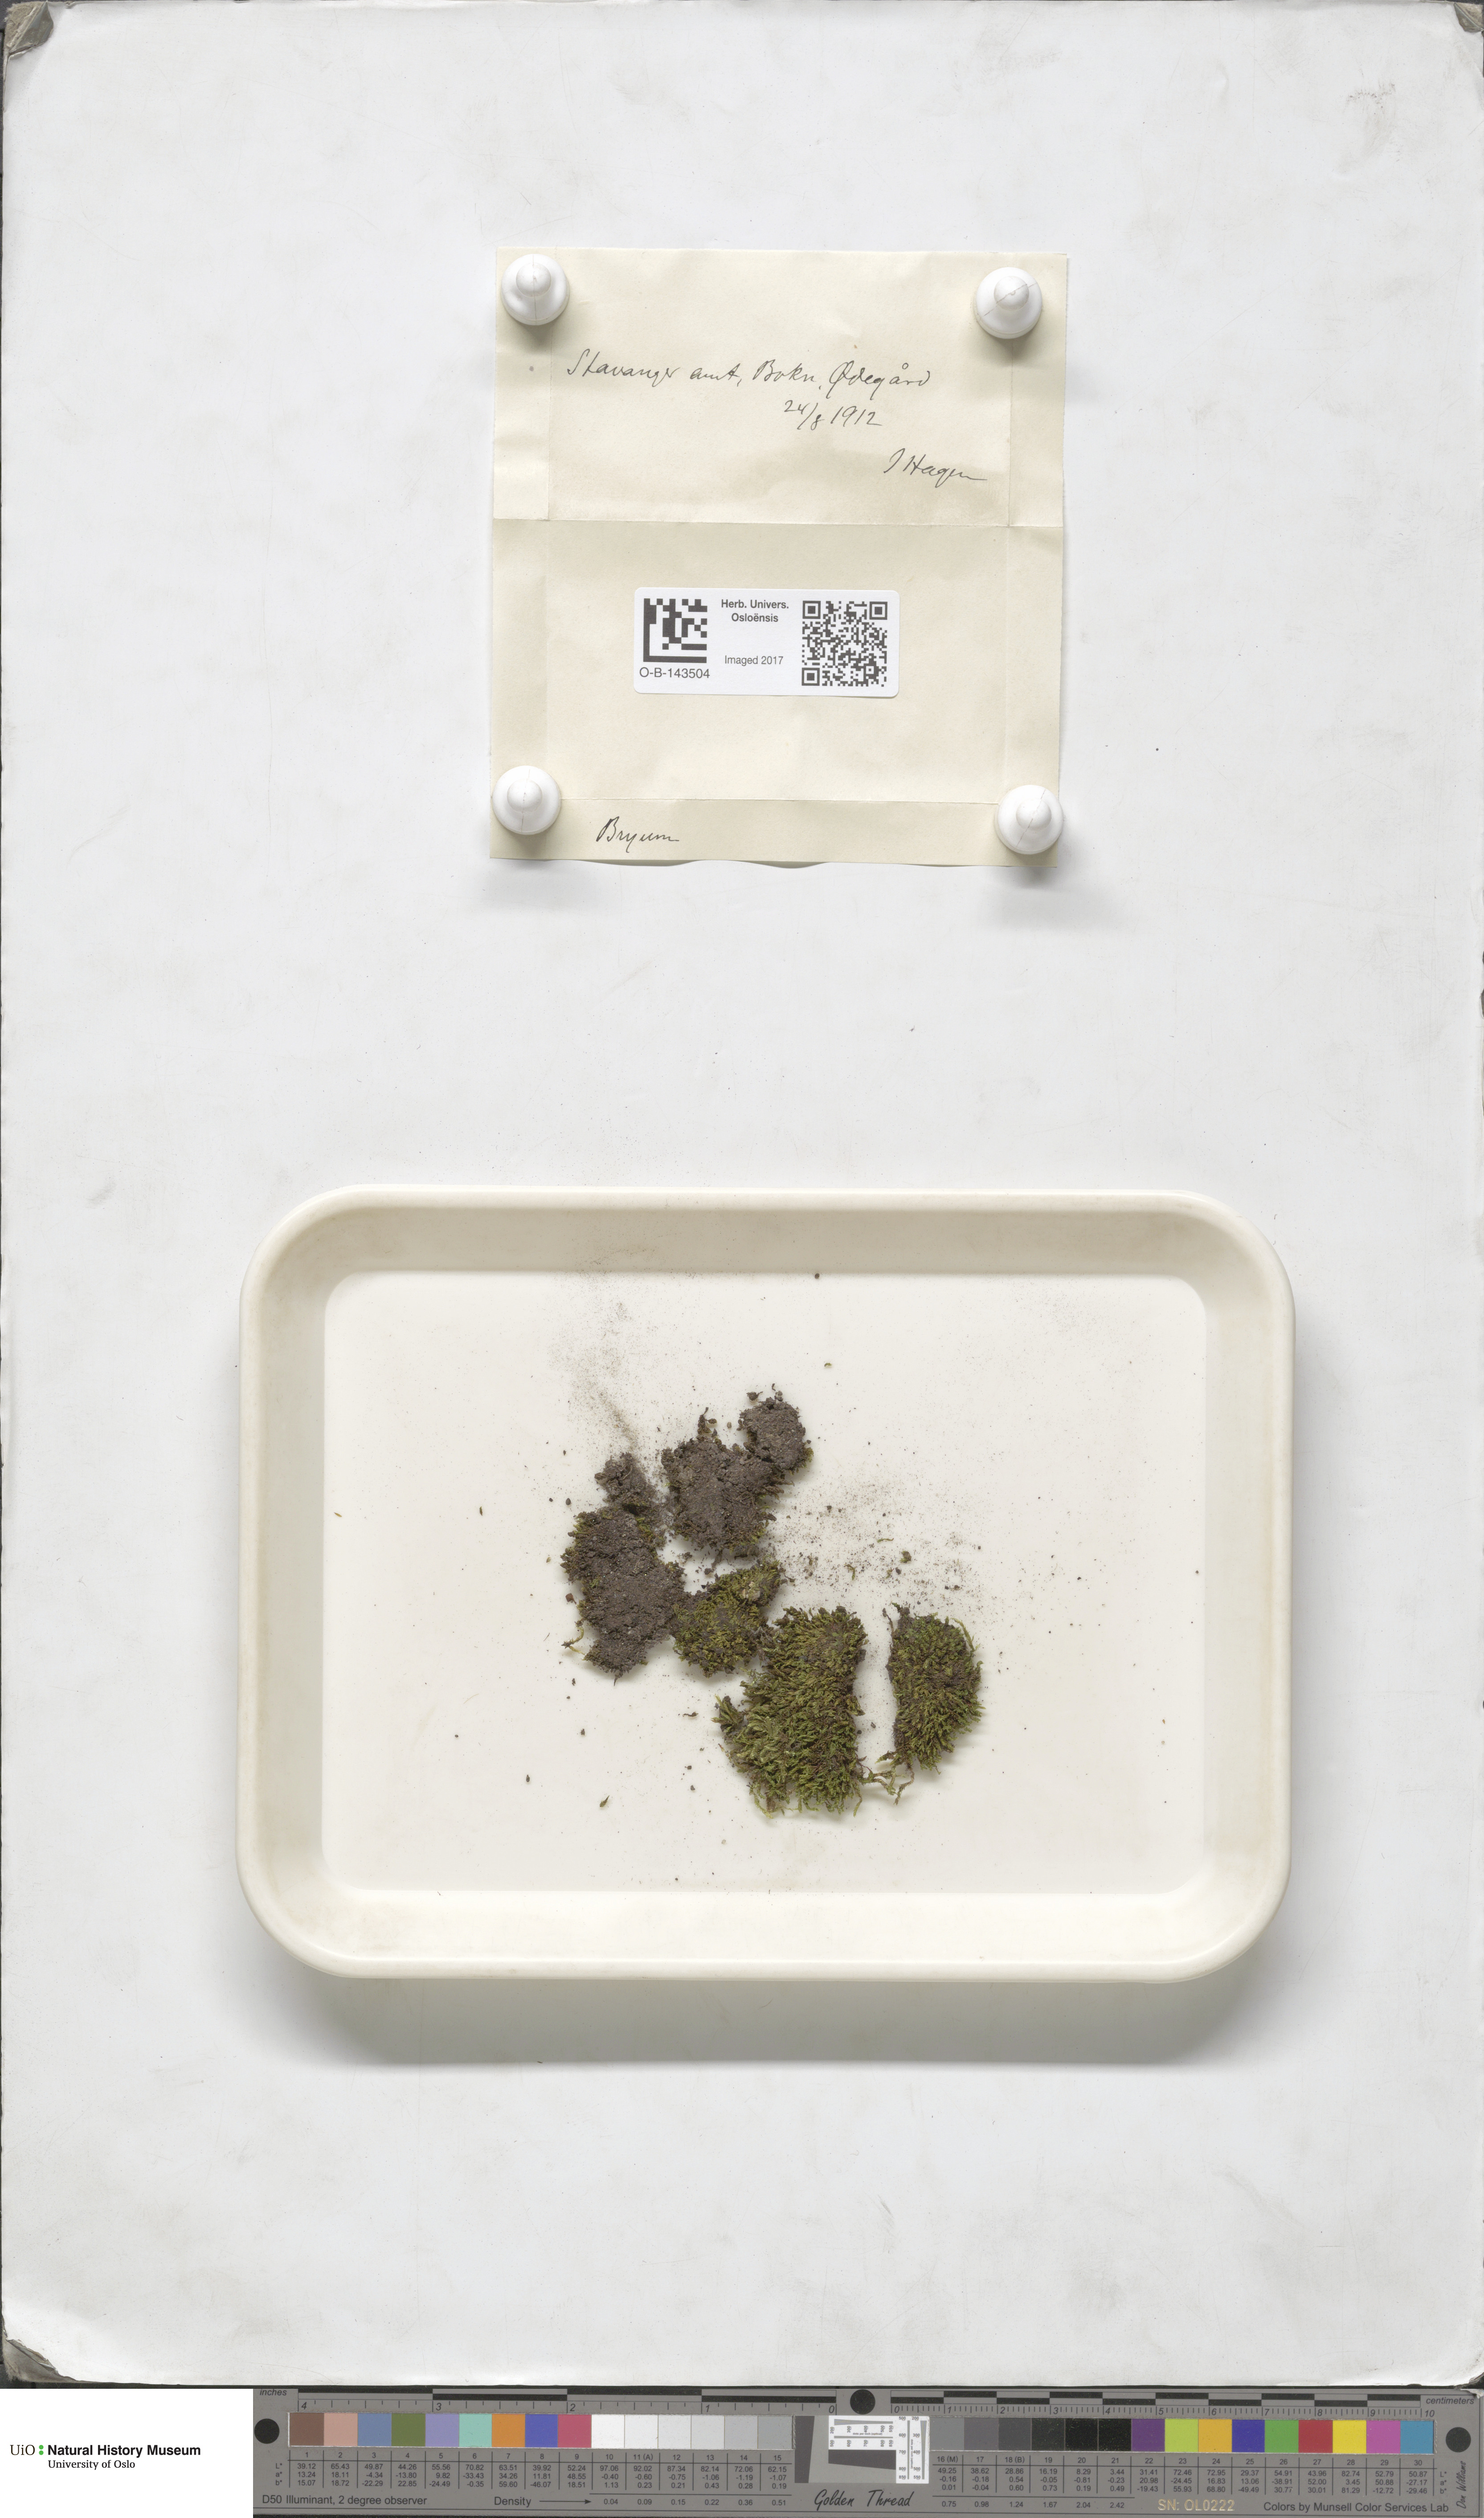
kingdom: Plantae
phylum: Bryophyta
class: Bryopsida
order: Bryales
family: Bryaceae
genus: Bryum
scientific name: Bryum
